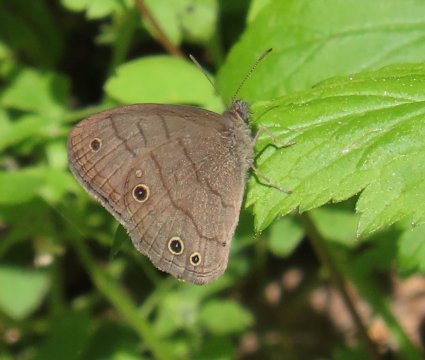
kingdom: Animalia
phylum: Arthropoda
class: Insecta
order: Lepidoptera
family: Nymphalidae
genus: Hermeuptychia
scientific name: Hermeuptychia intricata
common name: Intricate Satyr
